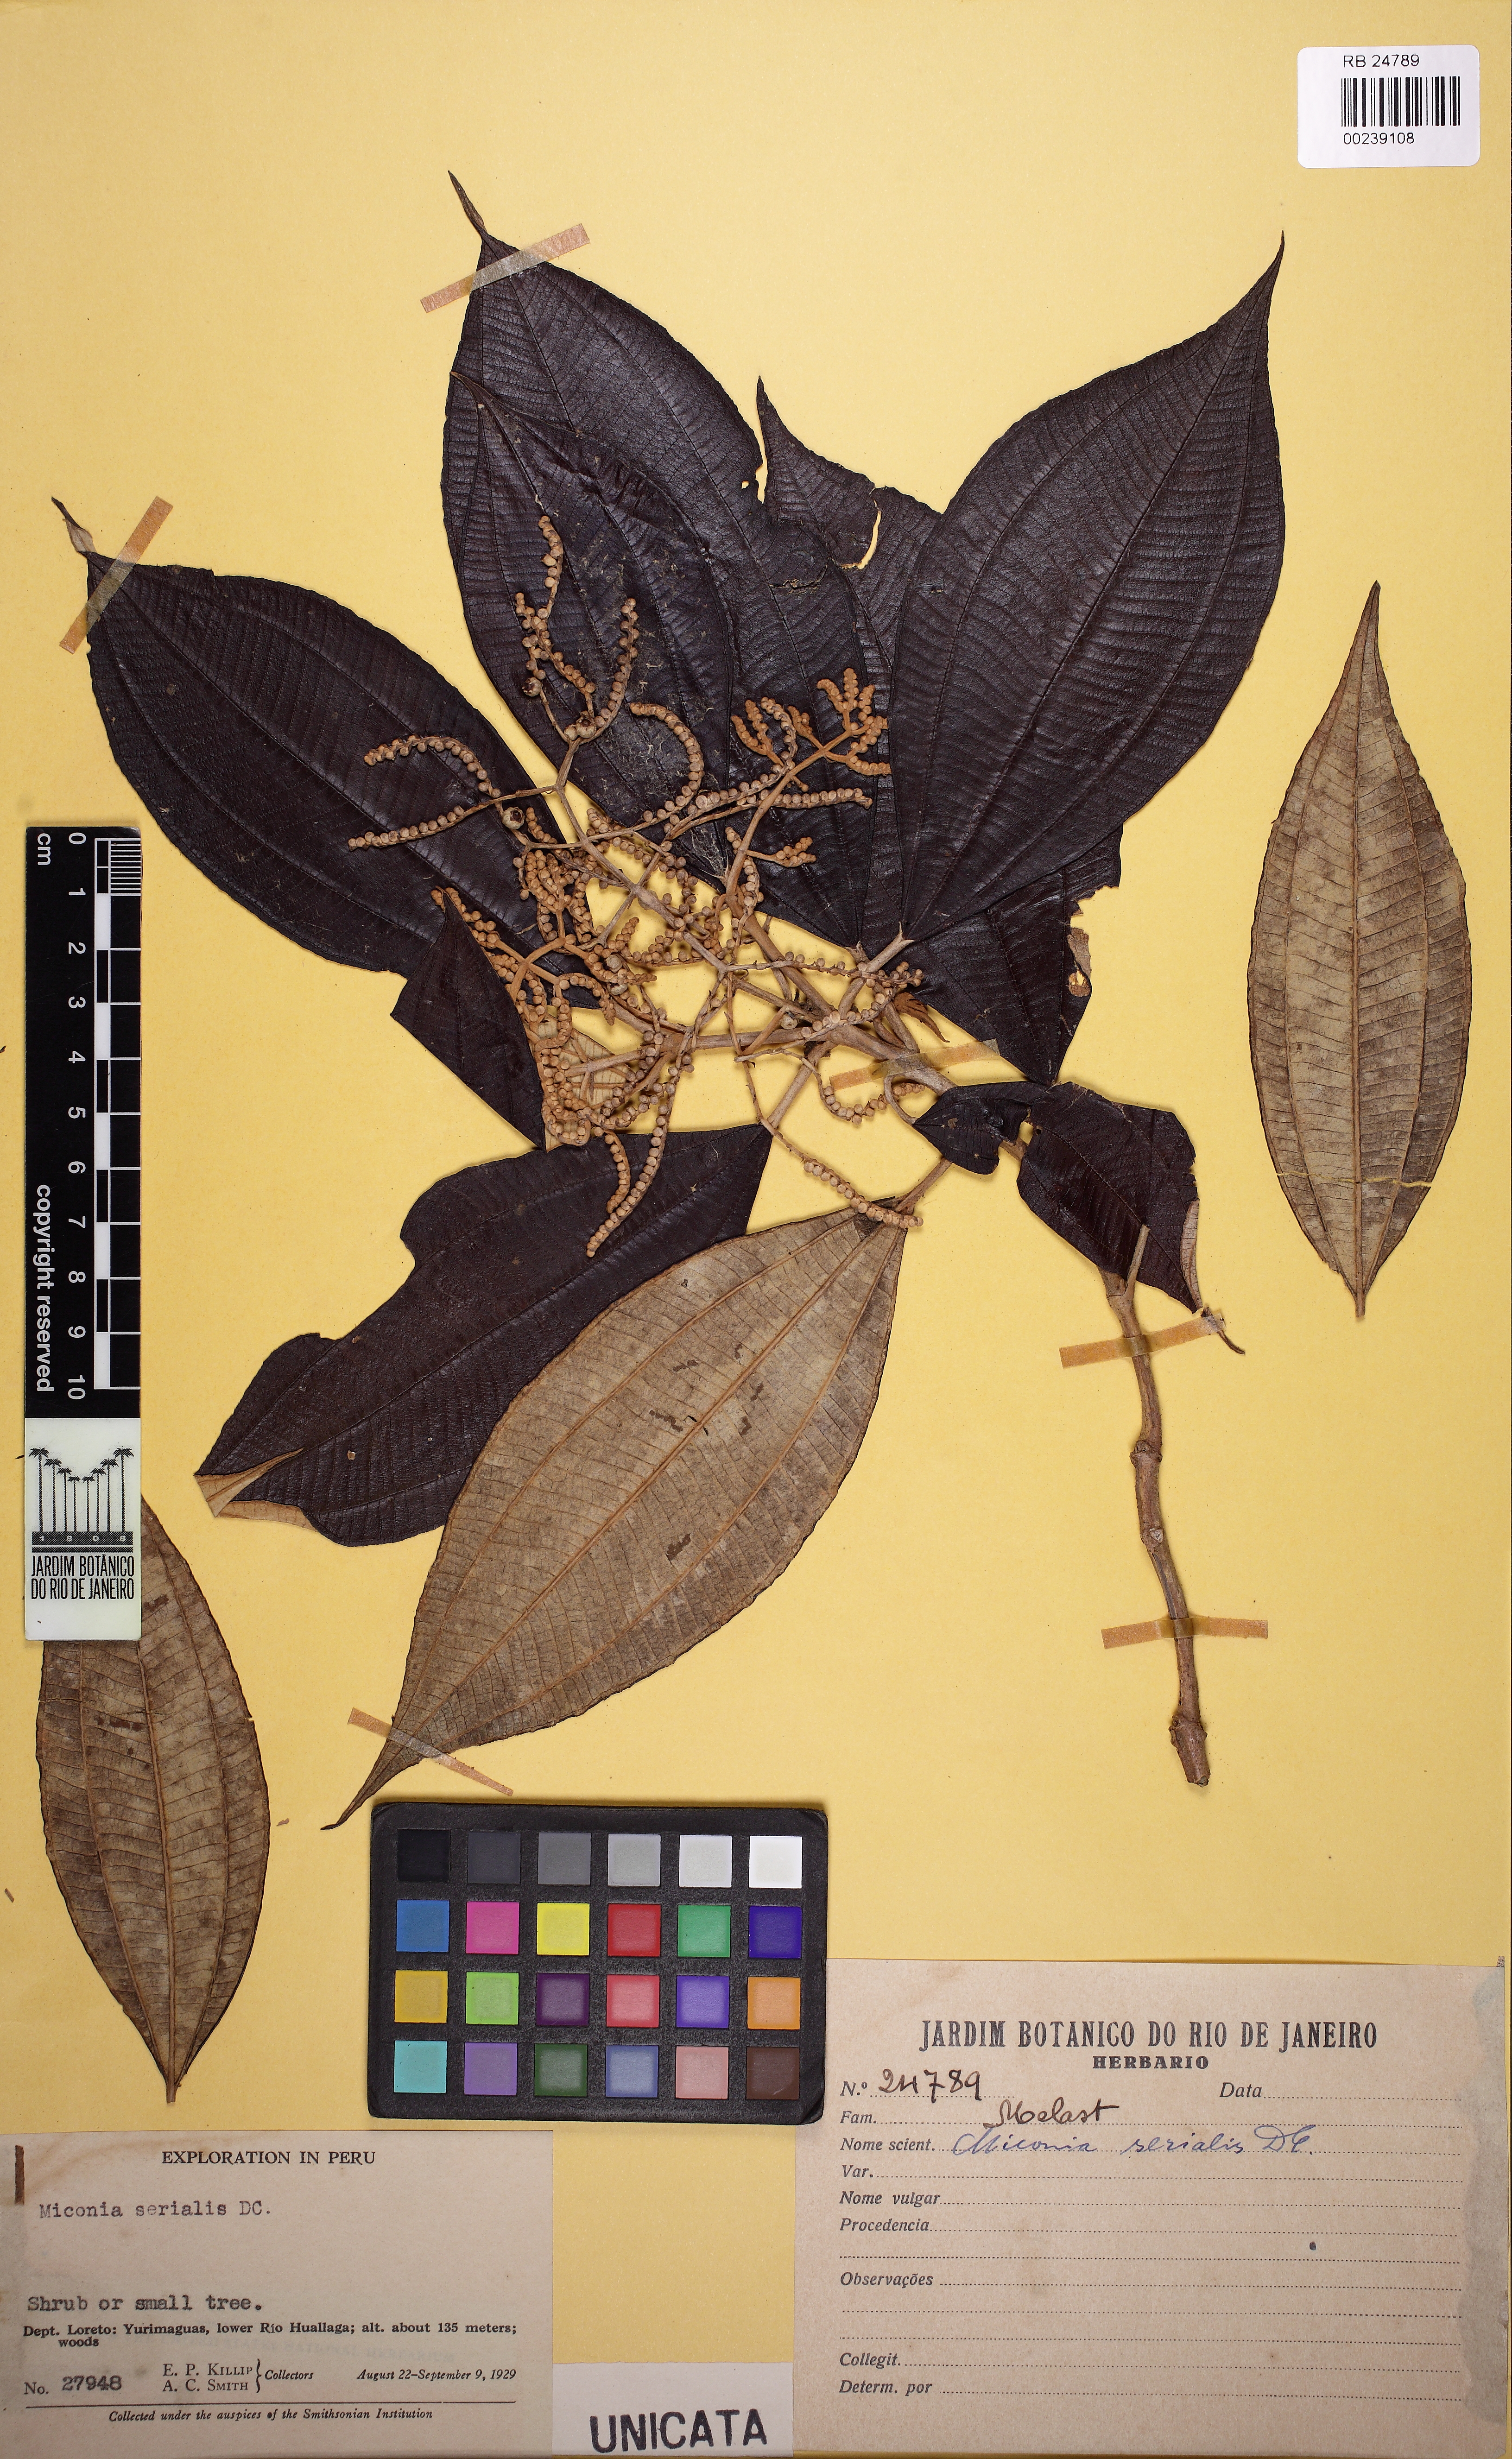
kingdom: Plantae
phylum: Tracheophyta
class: Magnoliopsida
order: Myrtales
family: Melastomataceae
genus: Miconia
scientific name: Miconia serialis
